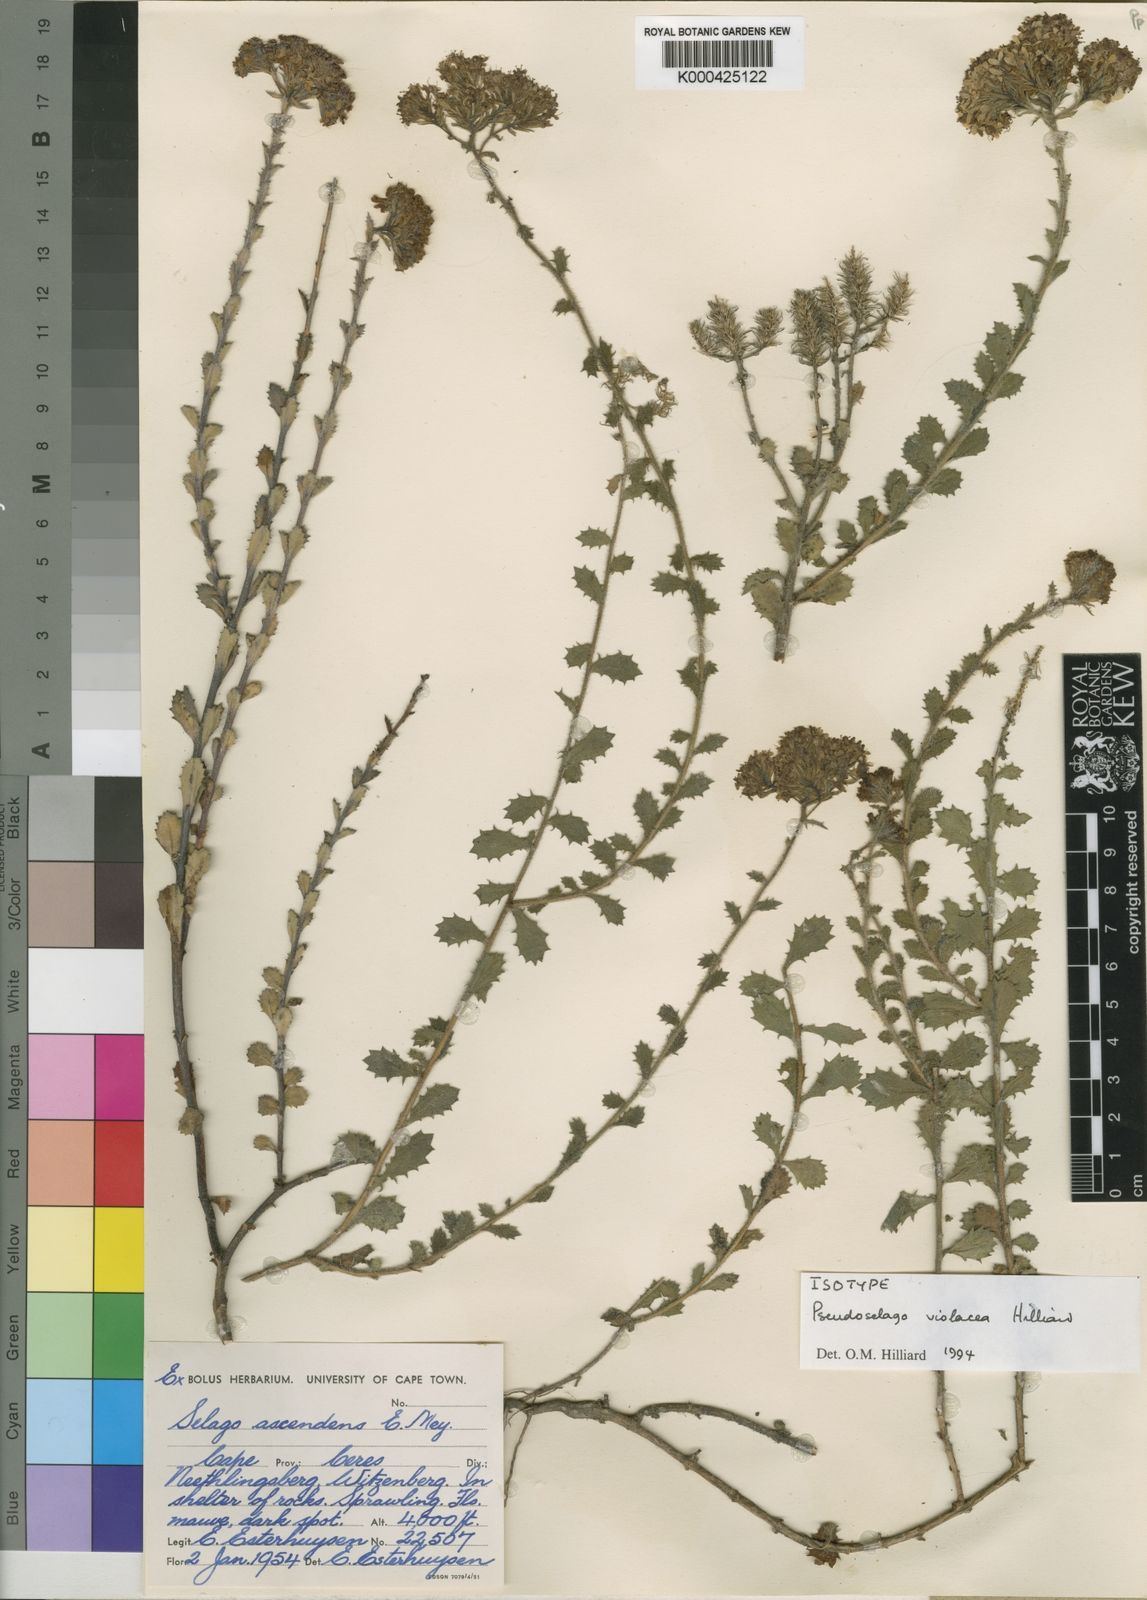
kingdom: Plantae
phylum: Tracheophyta
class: Magnoliopsida
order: Lamiales
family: Scrophulariaceae
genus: Pseudoselago
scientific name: Pseudoselago violacea
